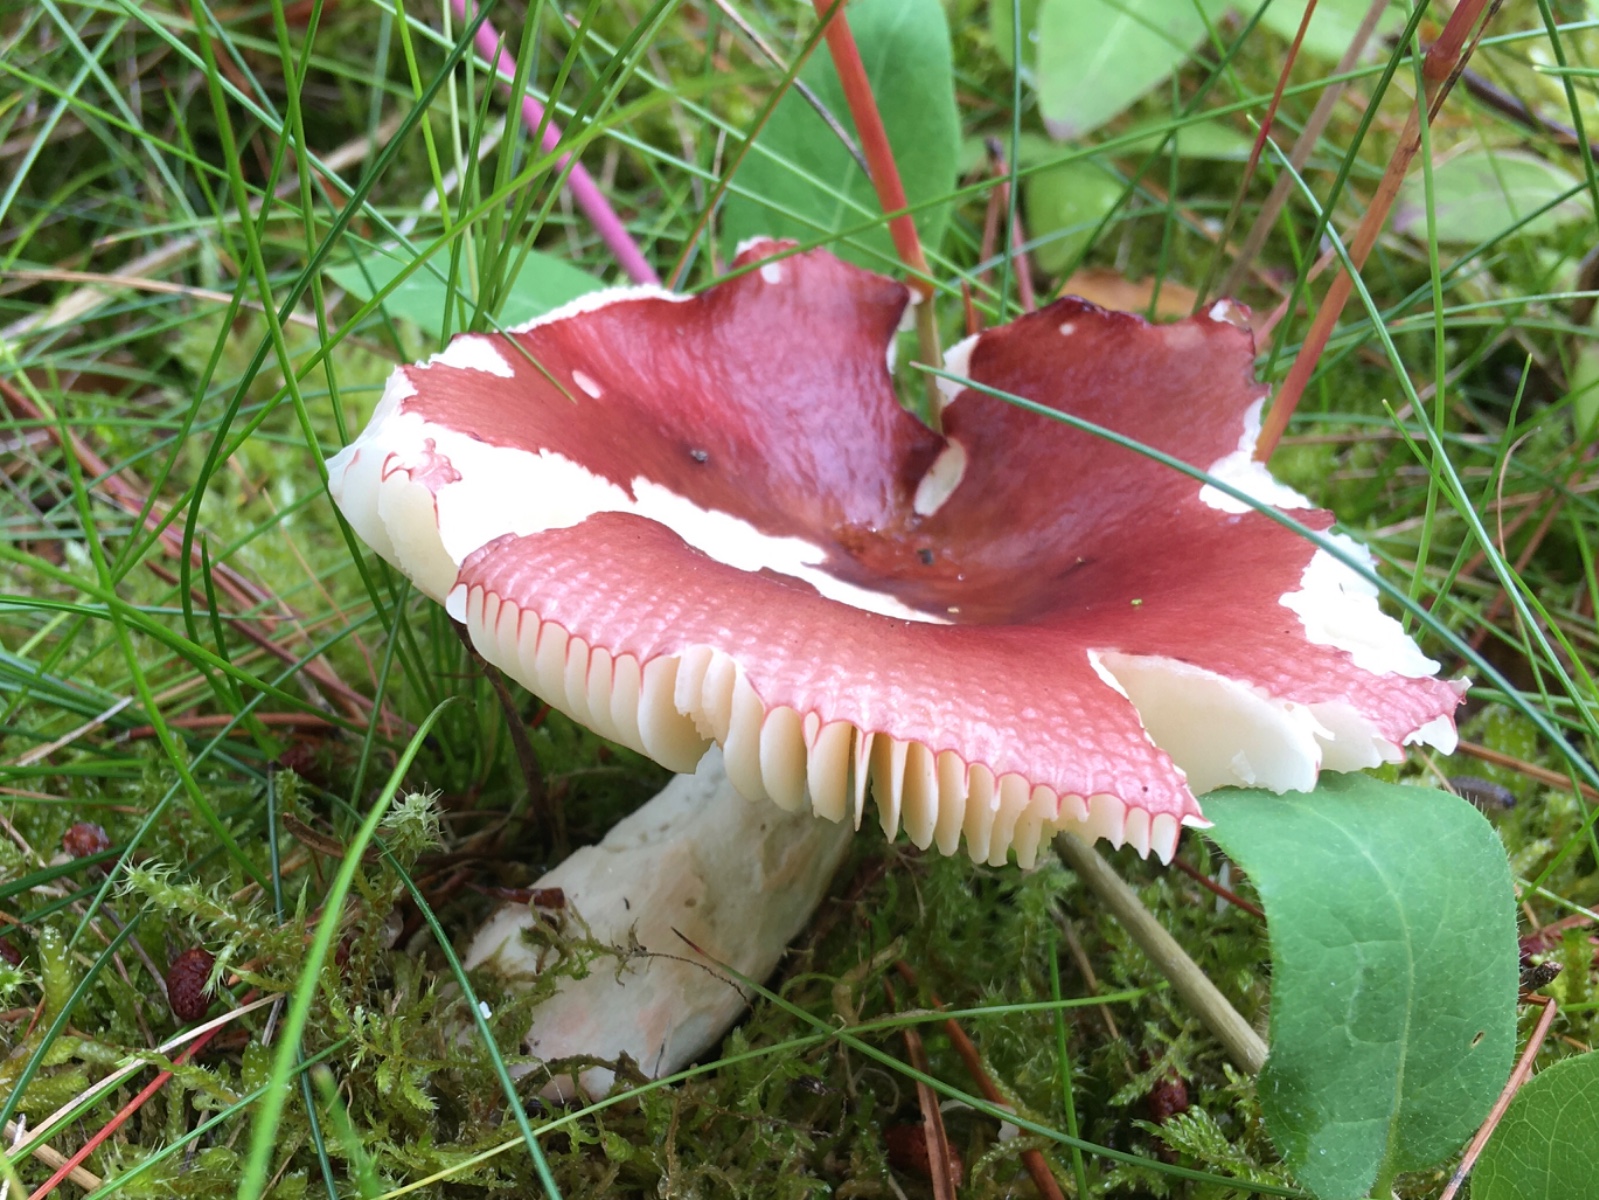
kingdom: Fungi
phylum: Basidiomycota
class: Agaricomycetes
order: Russulales
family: Russulaceae
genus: Russula
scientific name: Russula nitida
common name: året skørhat
